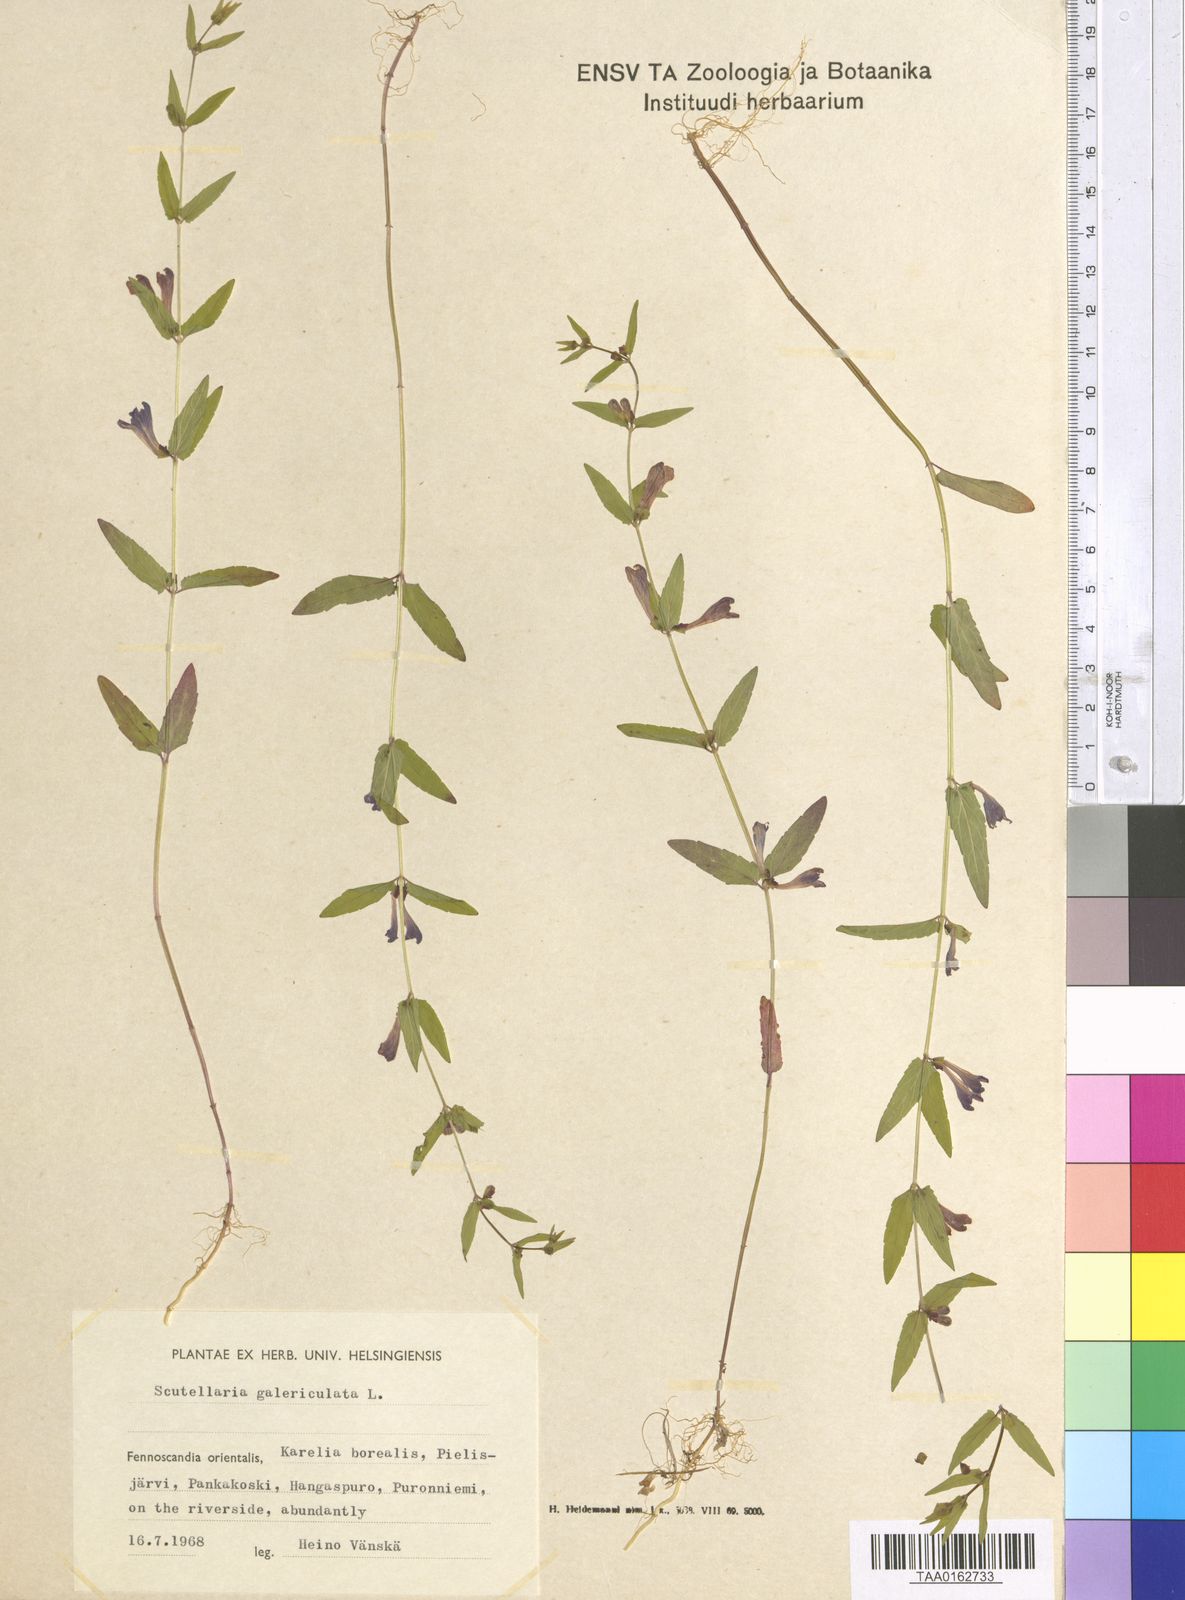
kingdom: Plantae
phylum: Tracheophyta
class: Magnoliopsida
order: Lamiales
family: Lamiaceae
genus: Scutellaria
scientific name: Scutellaria galericulata
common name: Skullcap
